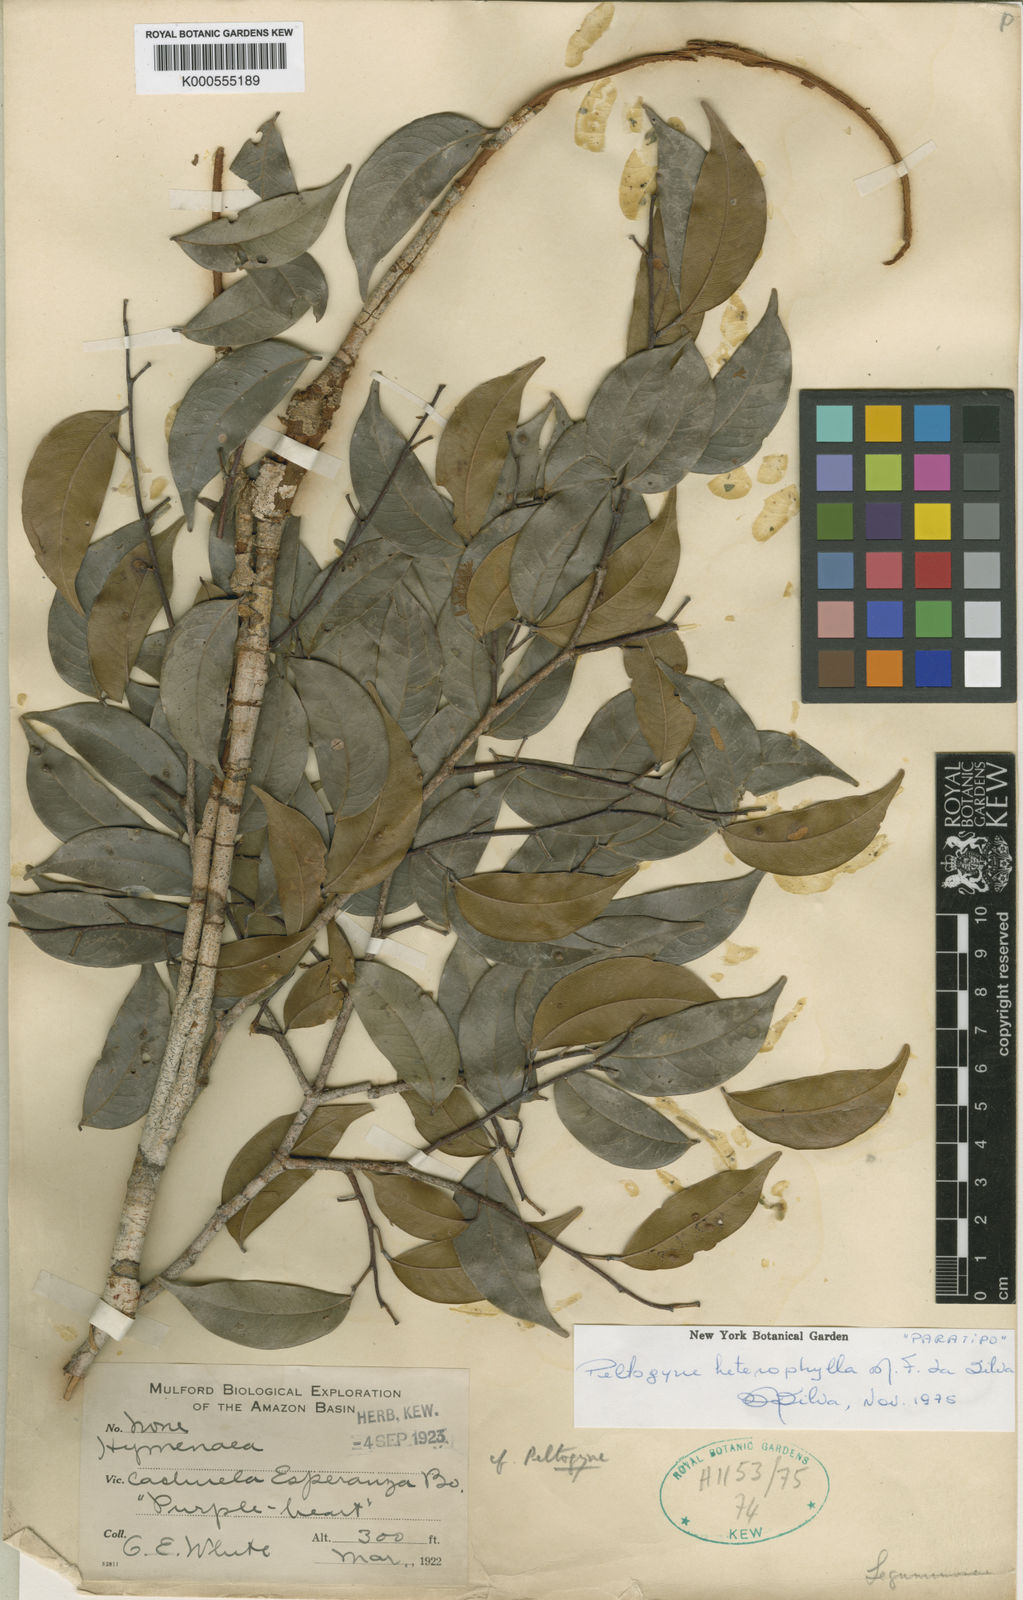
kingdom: Plantae
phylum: Tracheophyta
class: Magnoliopsida
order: Fabales
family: Fabaceae
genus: Peltogyne
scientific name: Peltogyne heterophylla
